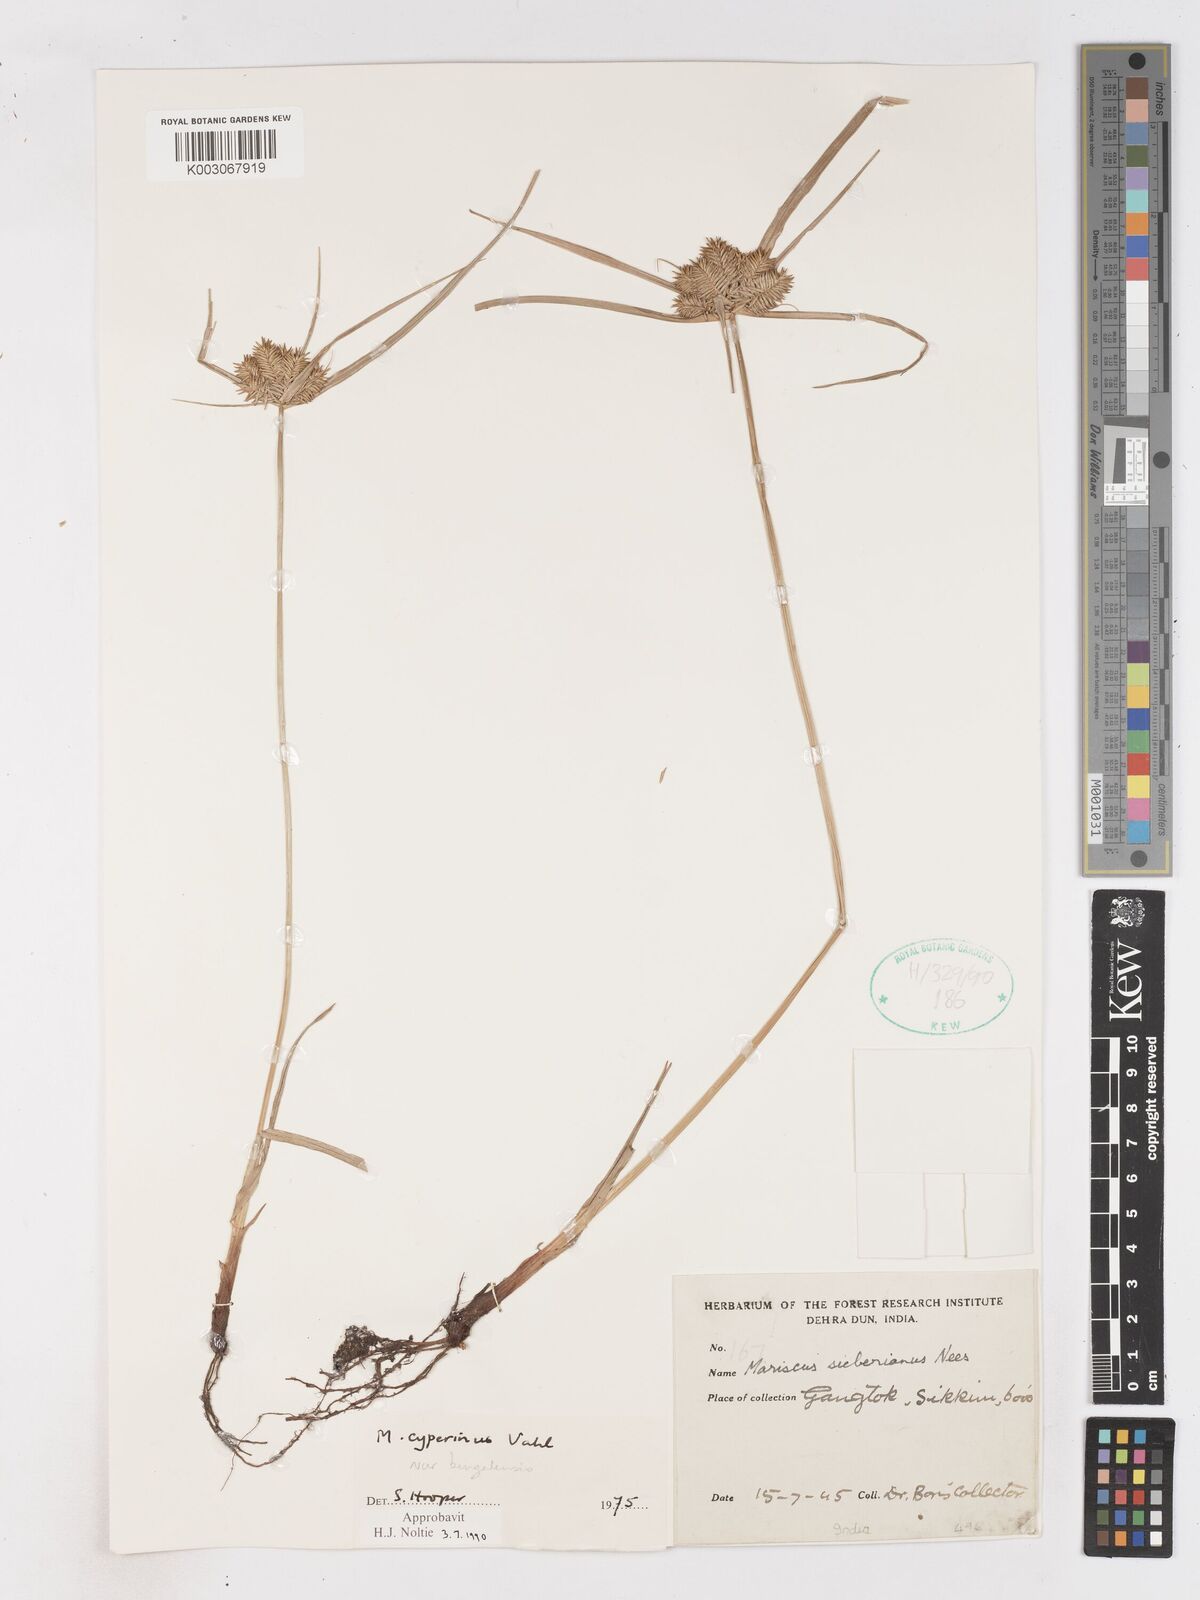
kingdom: Plantae
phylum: Tracheophyta
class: Liliopsida
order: Poales
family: Cyperaceae
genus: Cyperus
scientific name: Cyperus cyperinus
